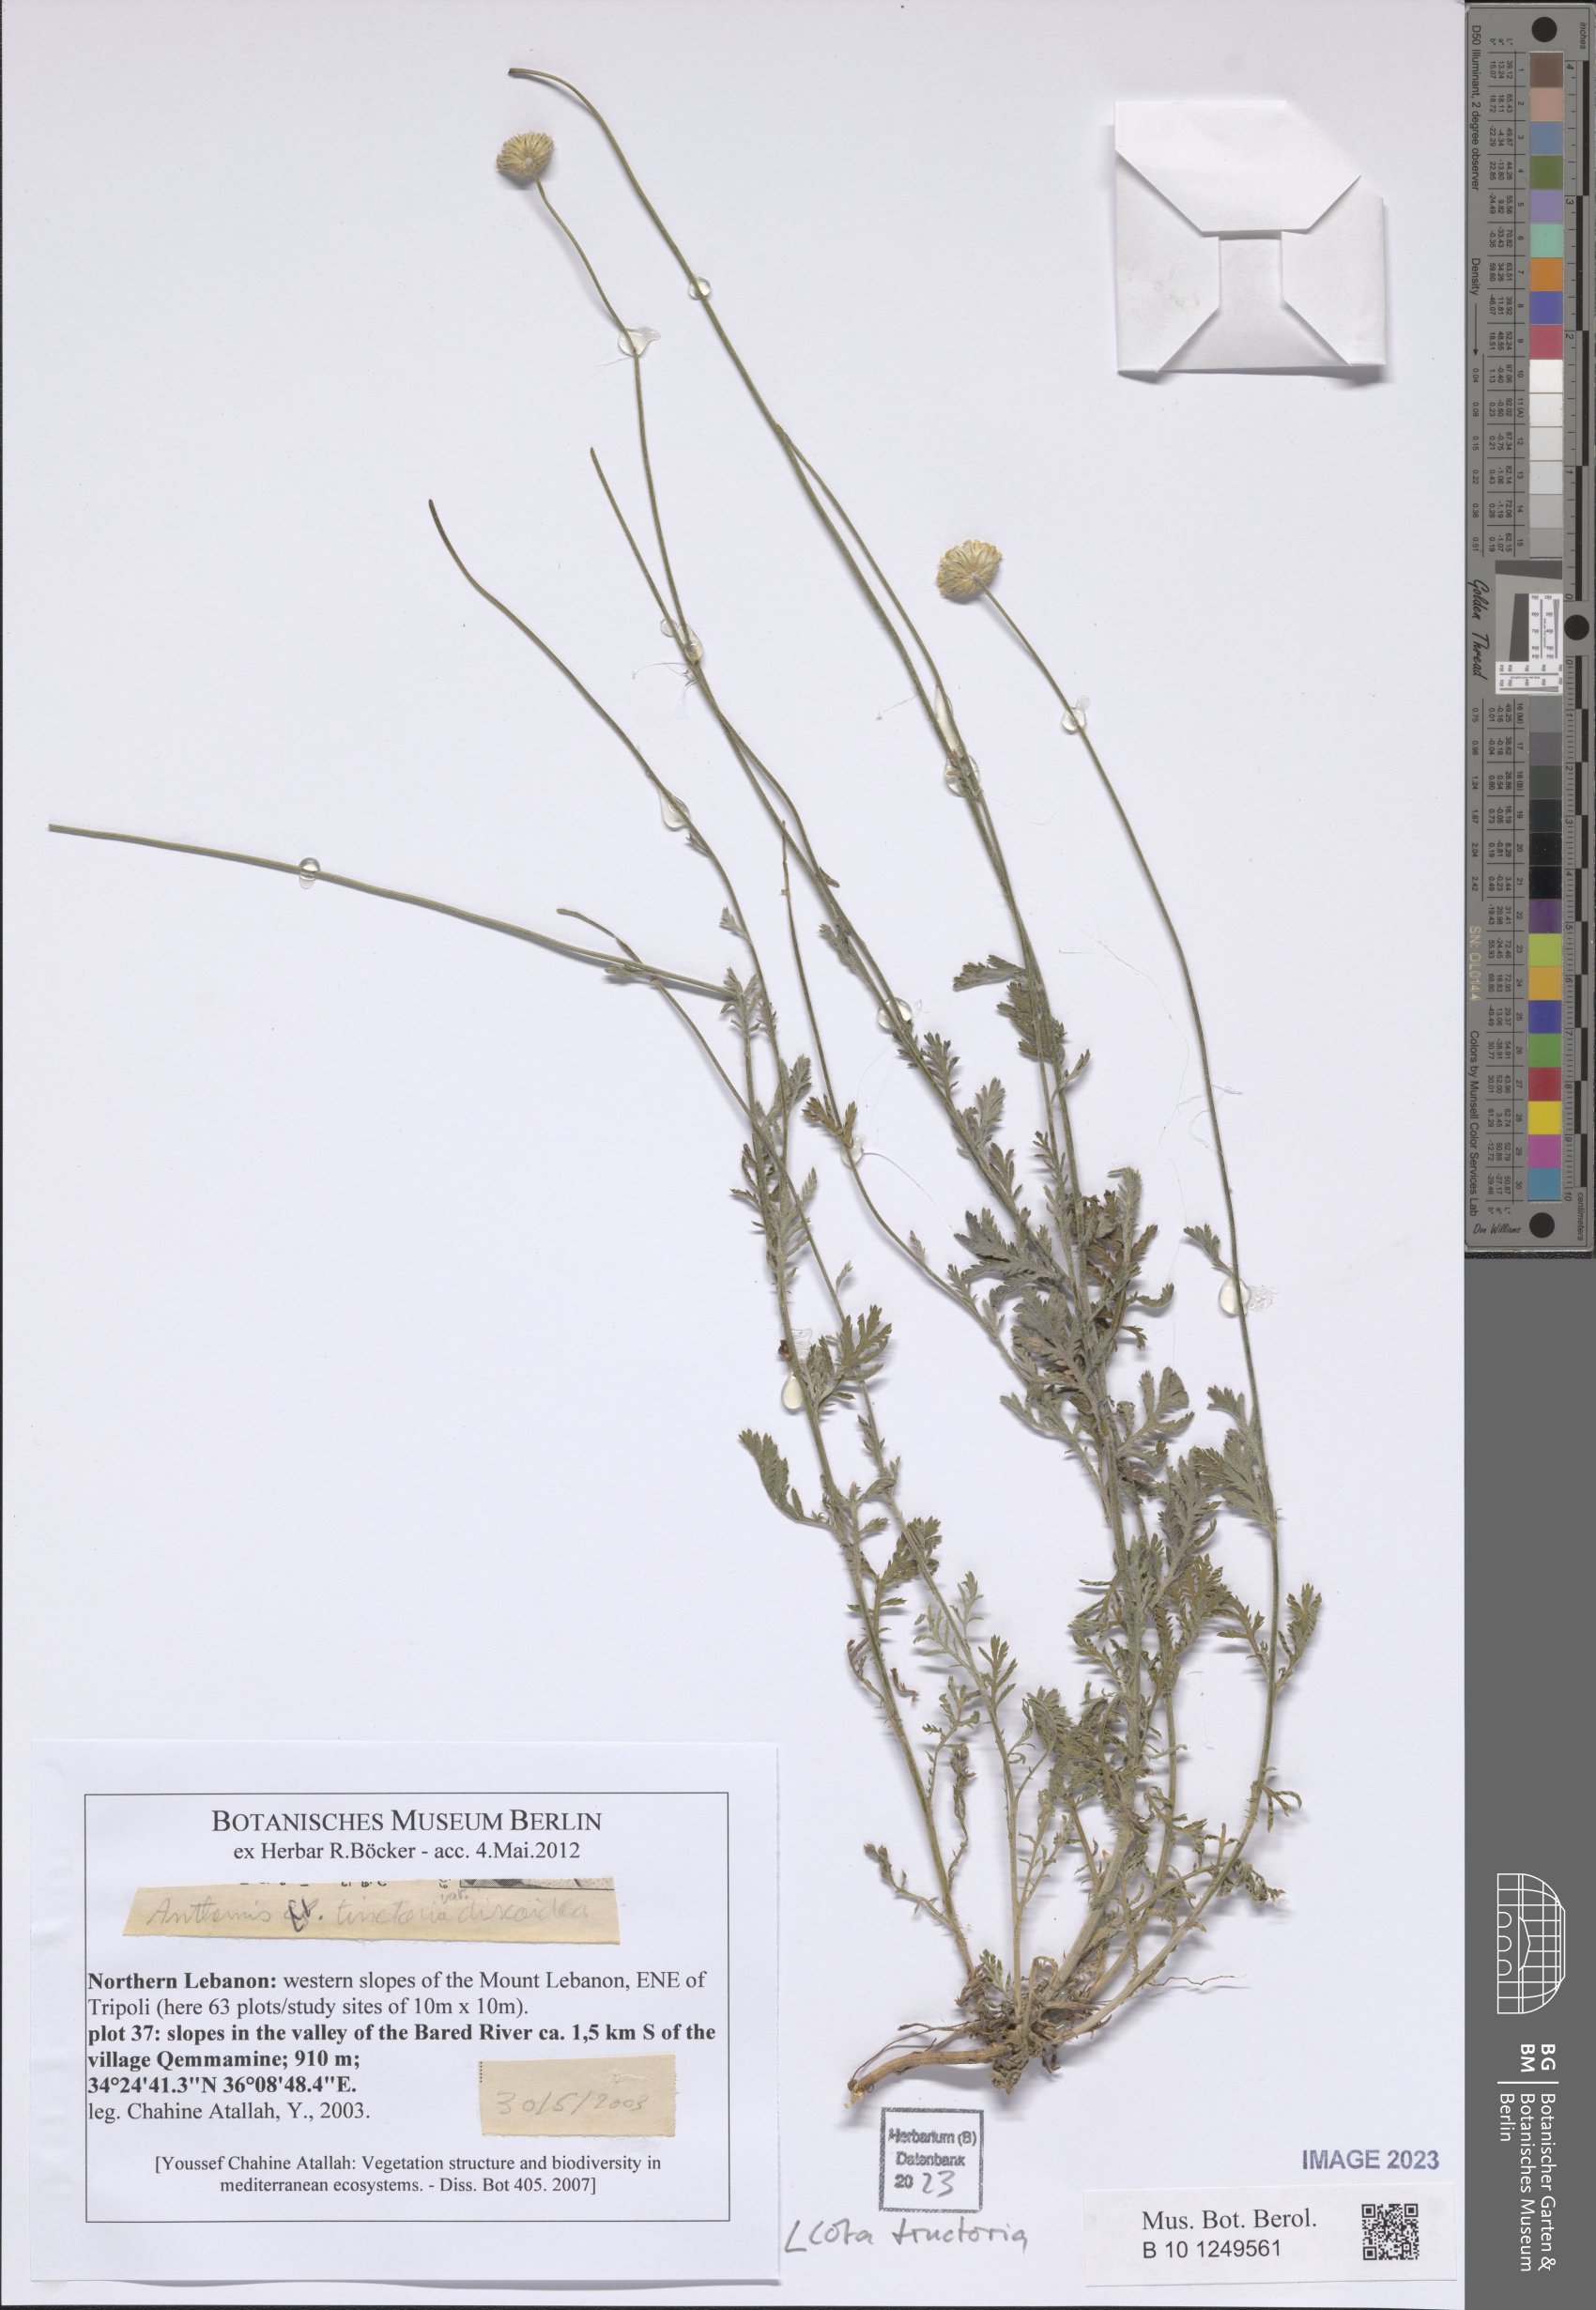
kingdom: Plantae
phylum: Tracheophyta
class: Magnoliopsida
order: Asterales
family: Asteraceae
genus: Cota
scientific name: Cota tinctoria
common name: Golden chamomile
